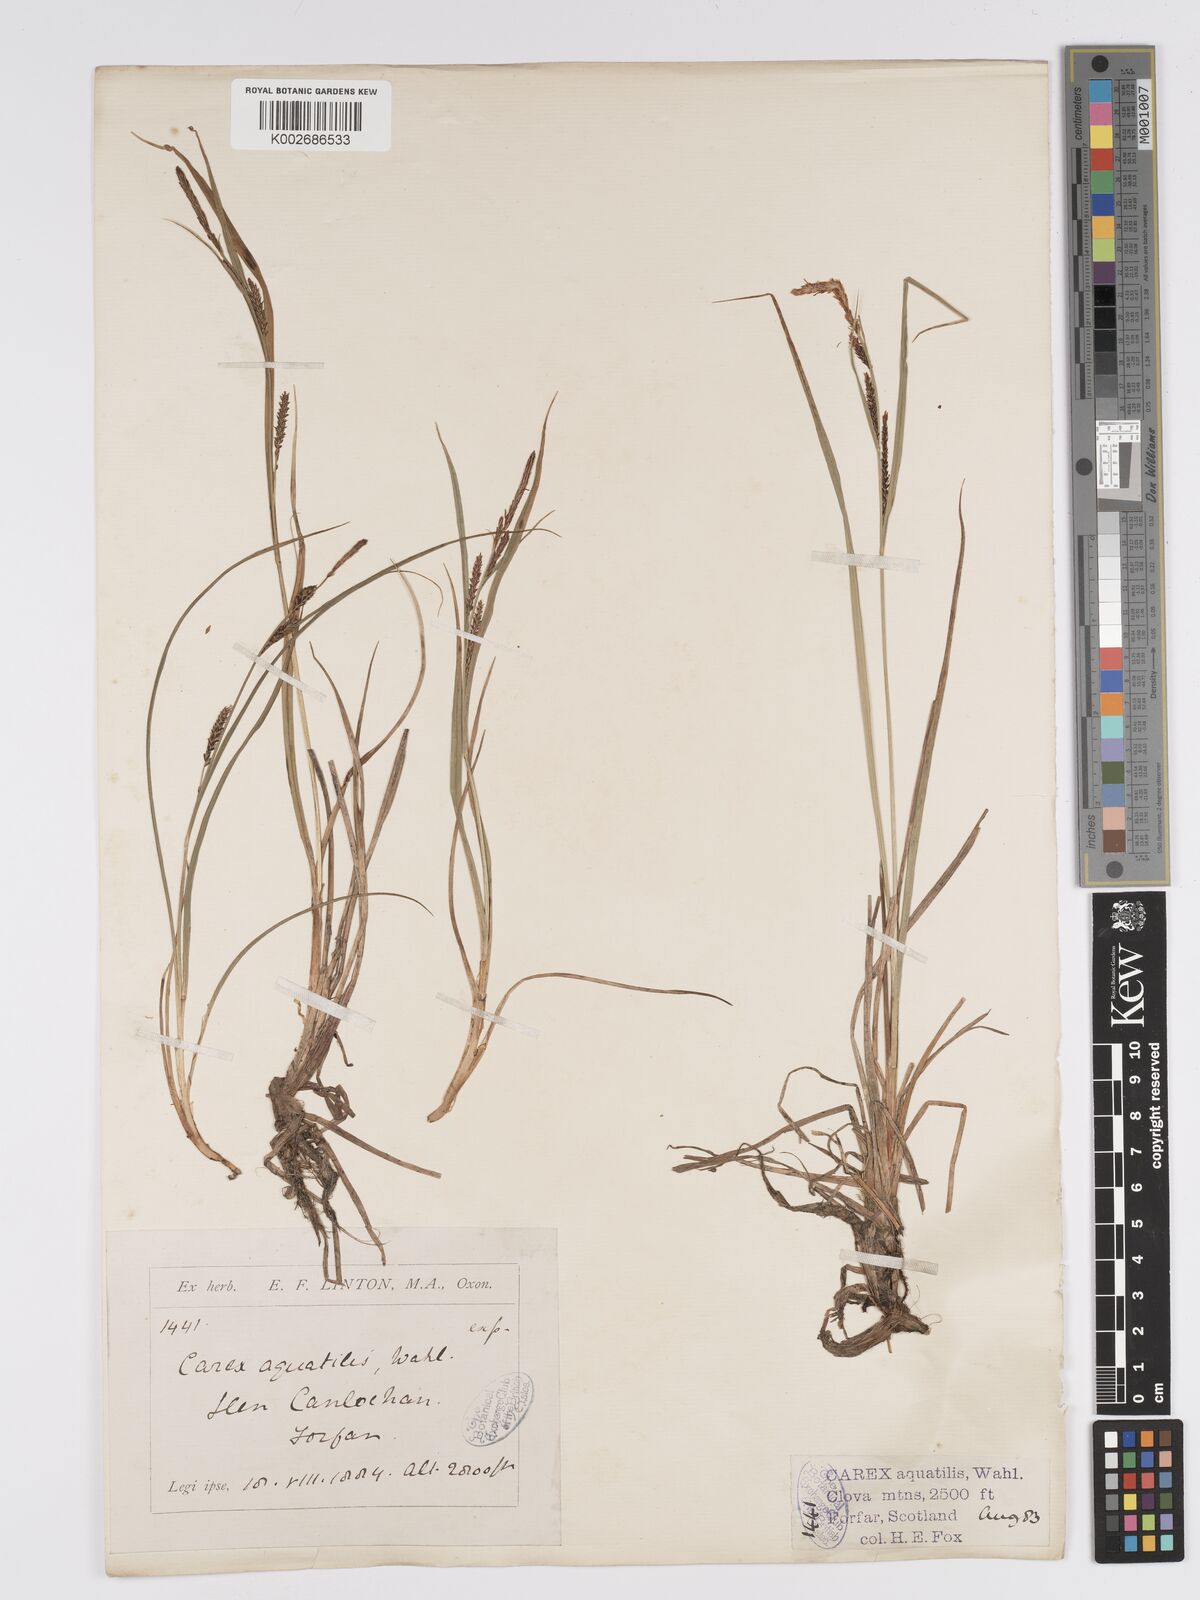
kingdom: Plantae
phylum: Tracheophyta
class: Liliopsida
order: Poales
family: Cyperaceae
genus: Carex
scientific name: Carex aquatilis
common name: Water sedge
